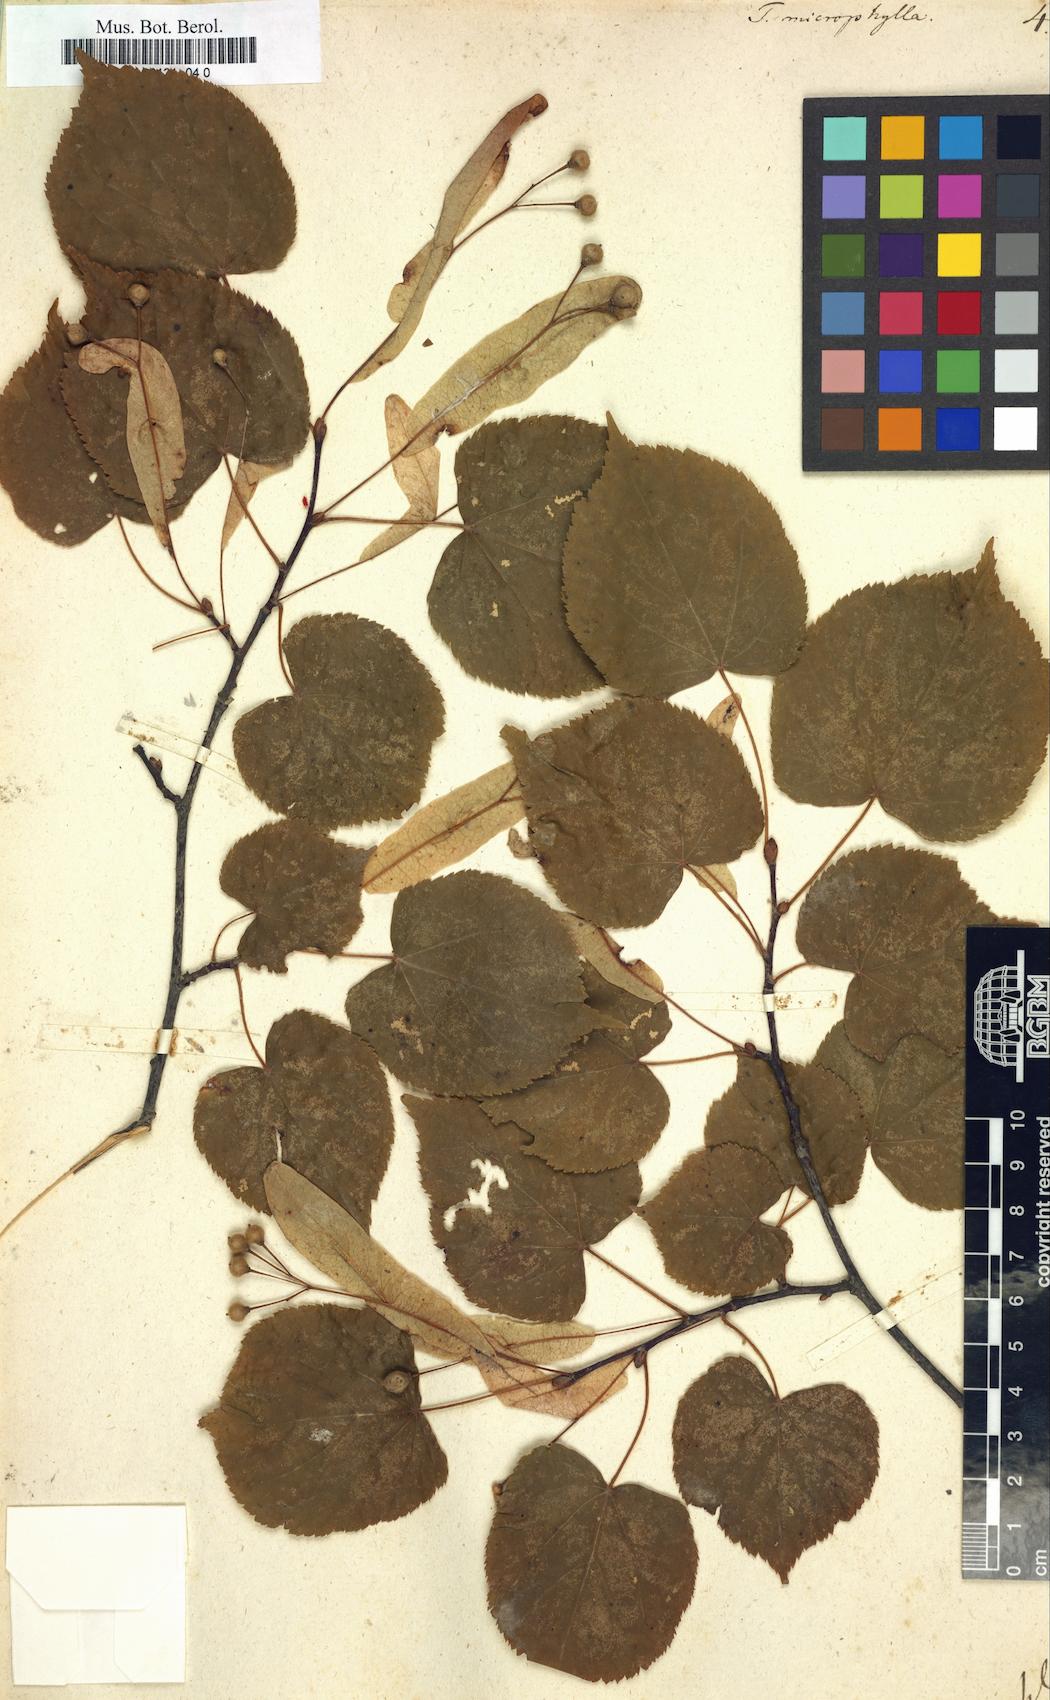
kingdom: Plantae
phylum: Tracheophyta
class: Magnoliopsida
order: Malvales
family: Malvaceae
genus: Tilia
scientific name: Tilia cordata
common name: Small-leaved lime
